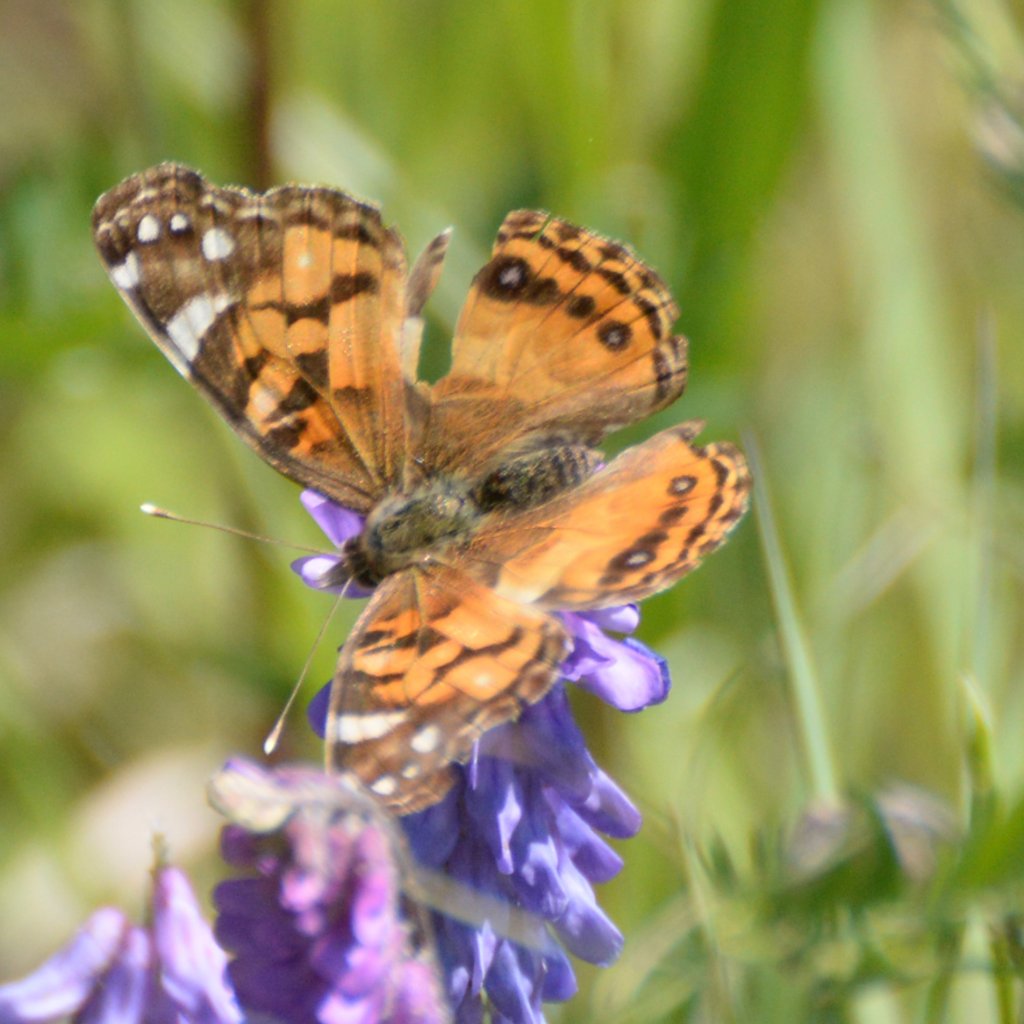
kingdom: Animalia
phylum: Arthropoda
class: Insecta
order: Lepidoptera
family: Nymphalidae
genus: Vanessa
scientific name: Vanessa virginiensis
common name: American Lady
